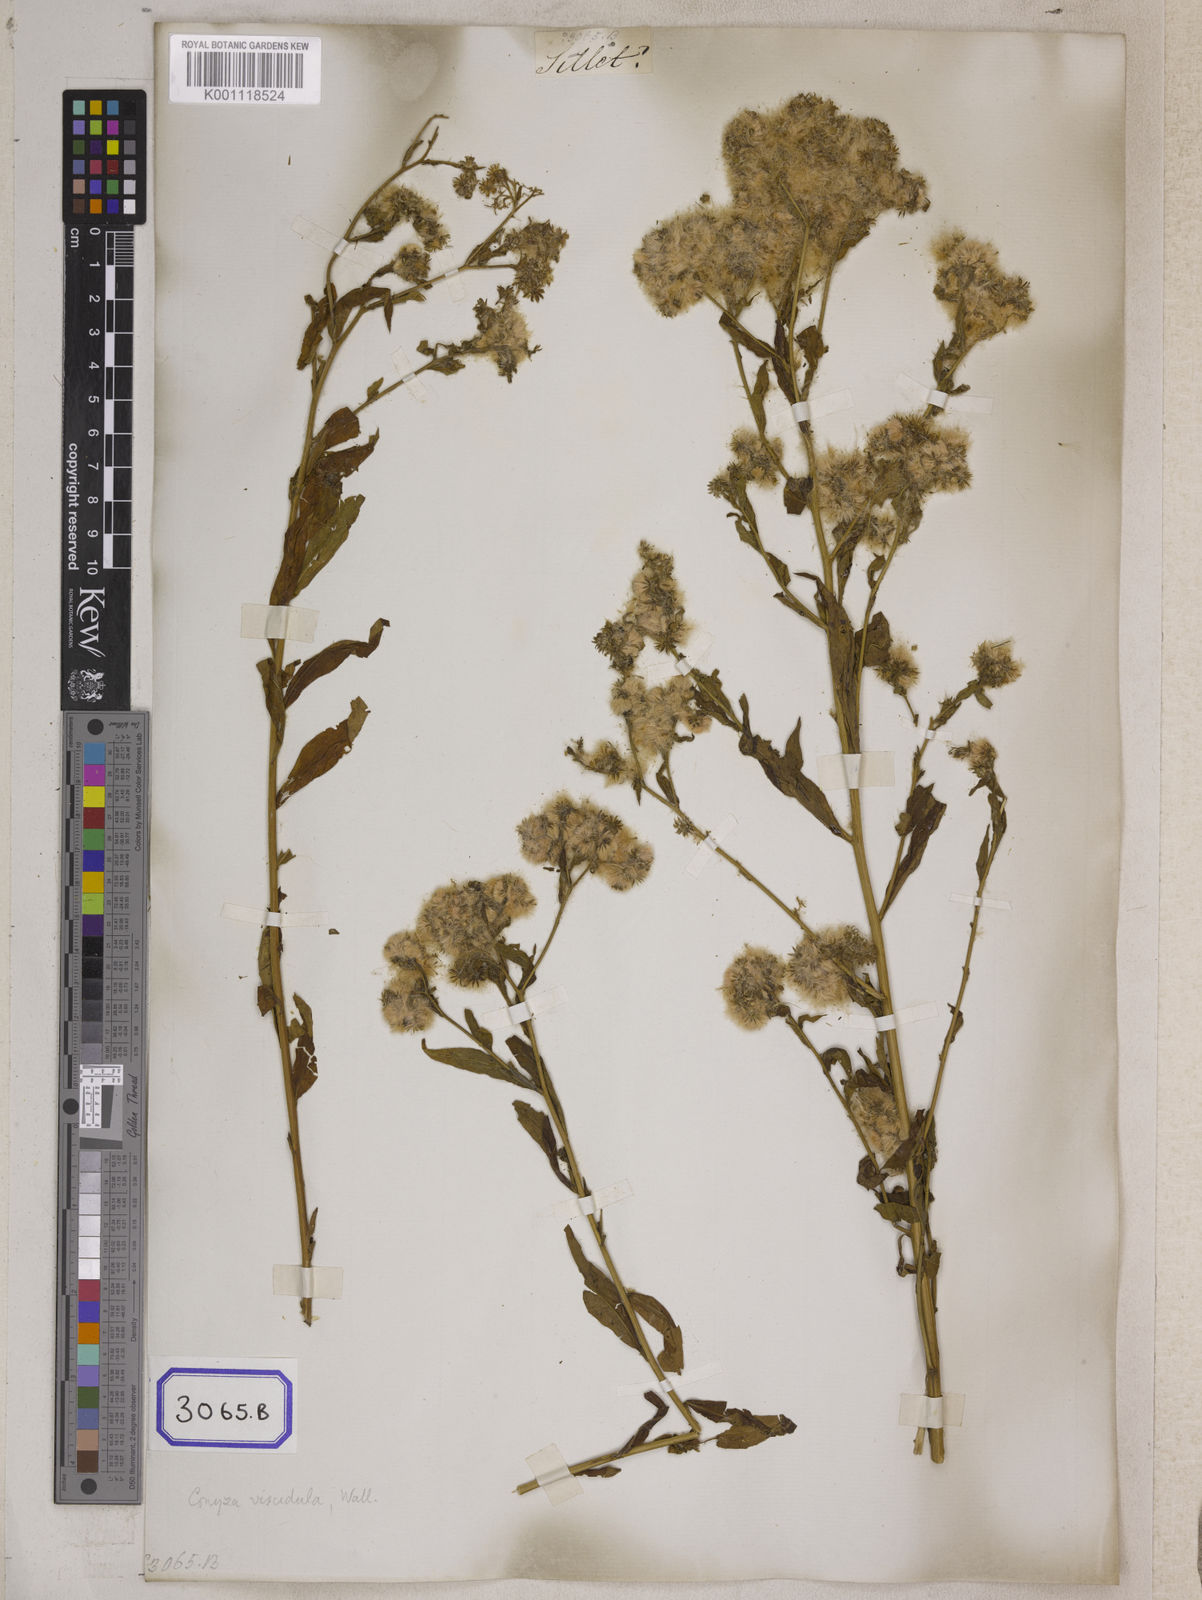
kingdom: Plantae
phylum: Tracheophyta
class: Magnoliopsida
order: Asterales
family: Asteraceae
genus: Eschenbachia
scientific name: Eschenbachia leucantha
